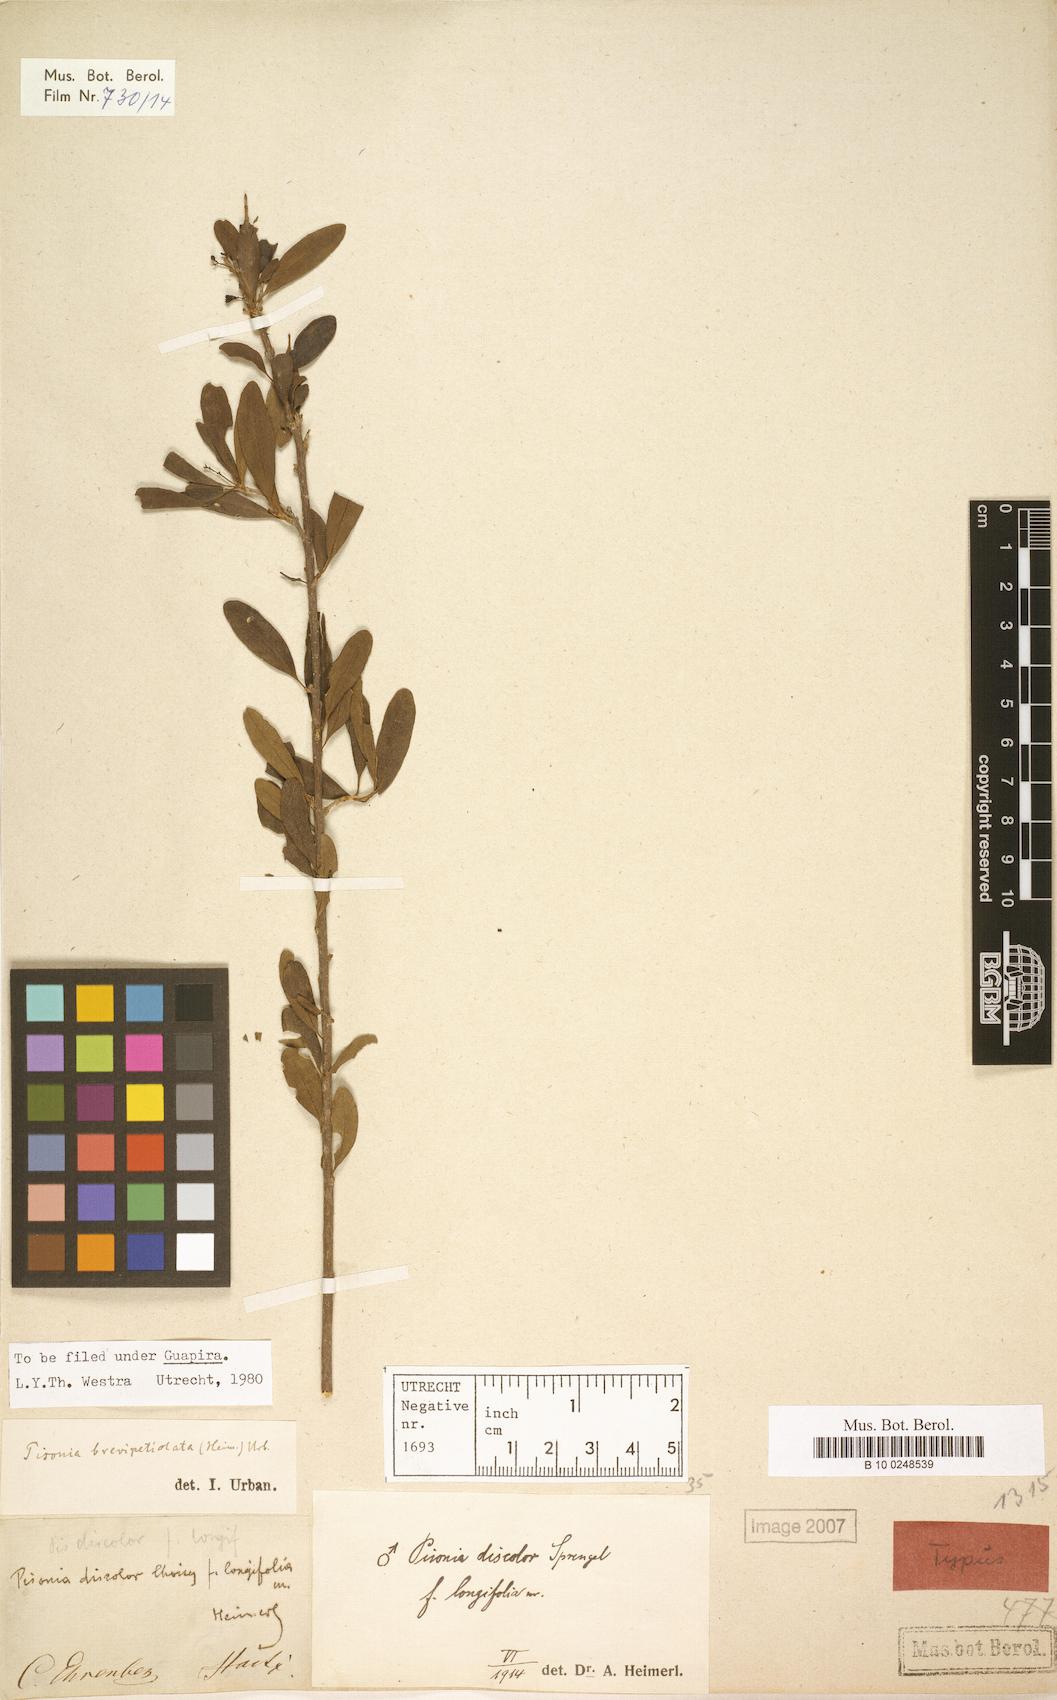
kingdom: Plantae
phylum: Tracheophyta
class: Magnoliopsida
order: Caryophyllales
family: Nyctaginaceae
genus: Guapira
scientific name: Guapira brevipetiolata
